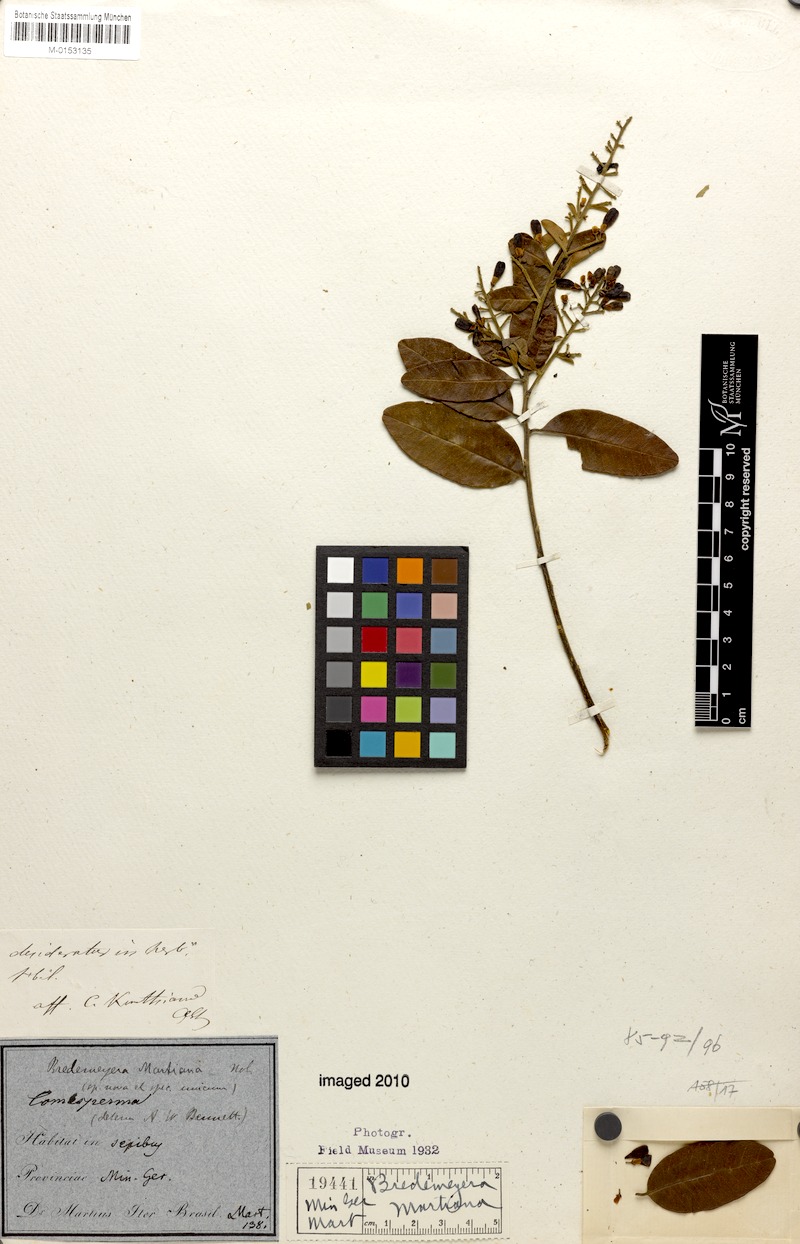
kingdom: Plantae
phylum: Tracheophyta
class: Magnoliopsida
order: Fabales
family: Polygalaceae
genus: Bredemeyera
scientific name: Bredemeyera martiana
